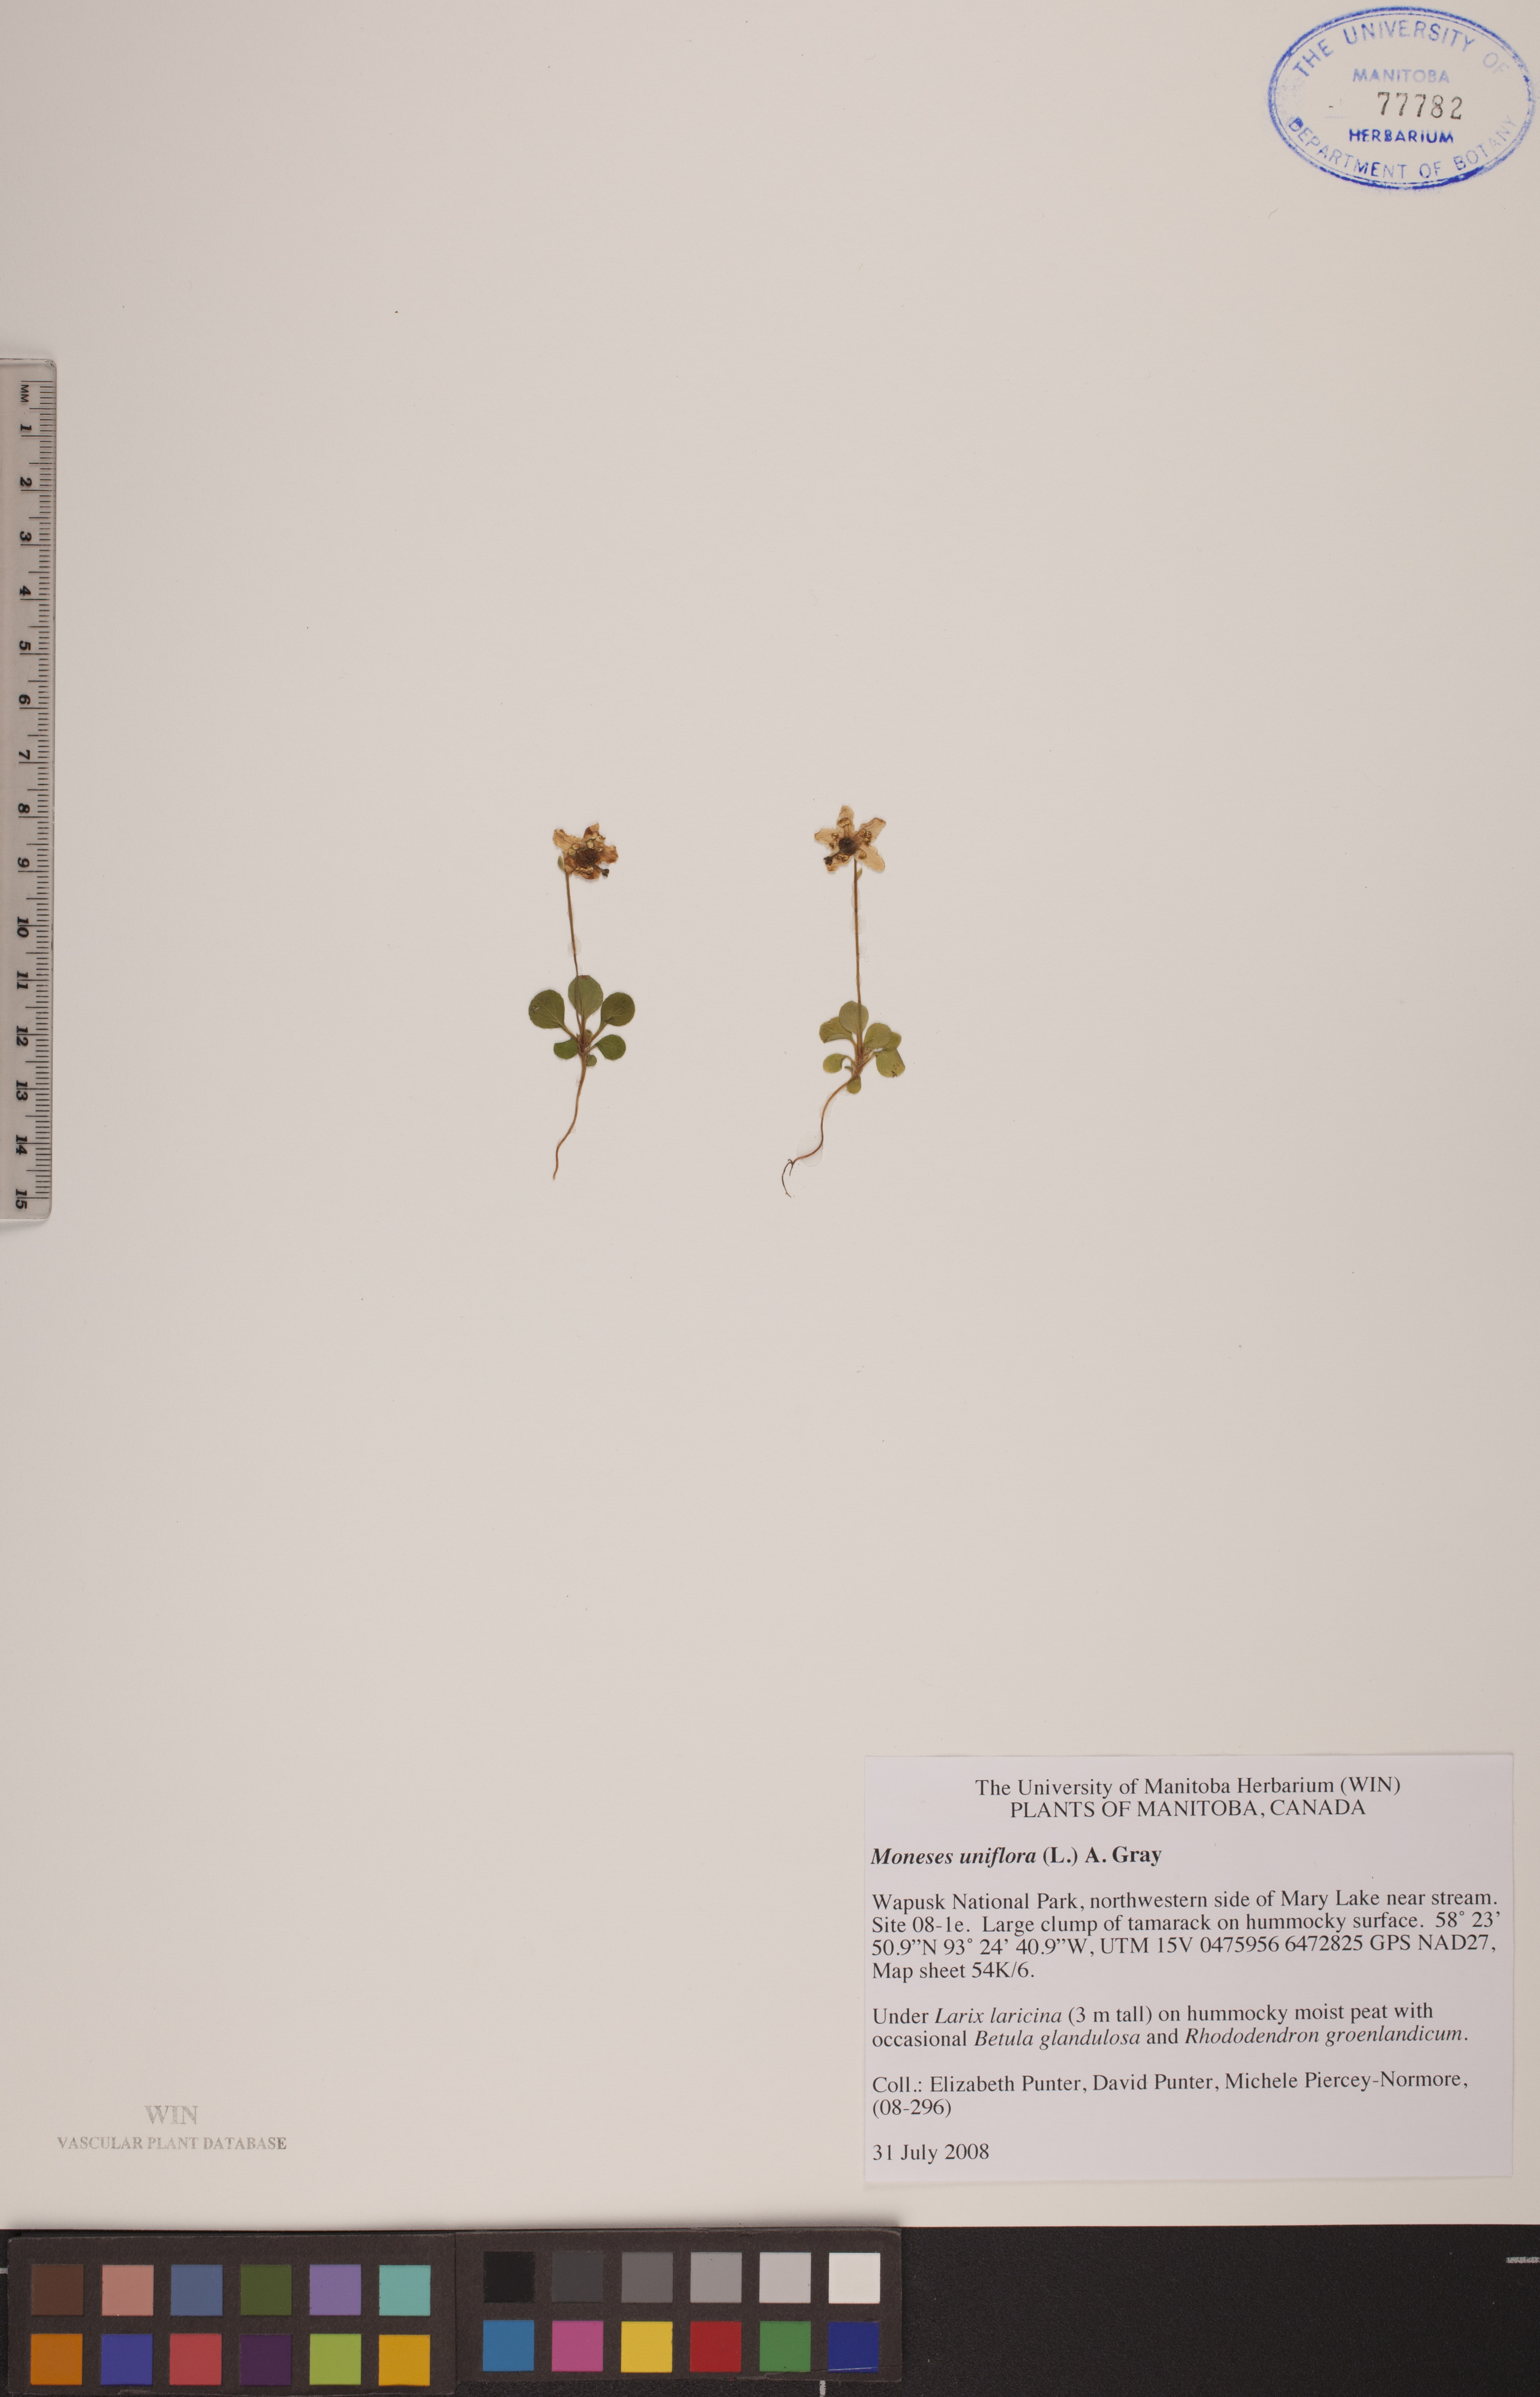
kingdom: Plantae
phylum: Tracheophyta
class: Magnoliopsida
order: Ericales
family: Ericaceae
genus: Moneses
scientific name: Moneses uniflora
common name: One-flowered wintergreen
